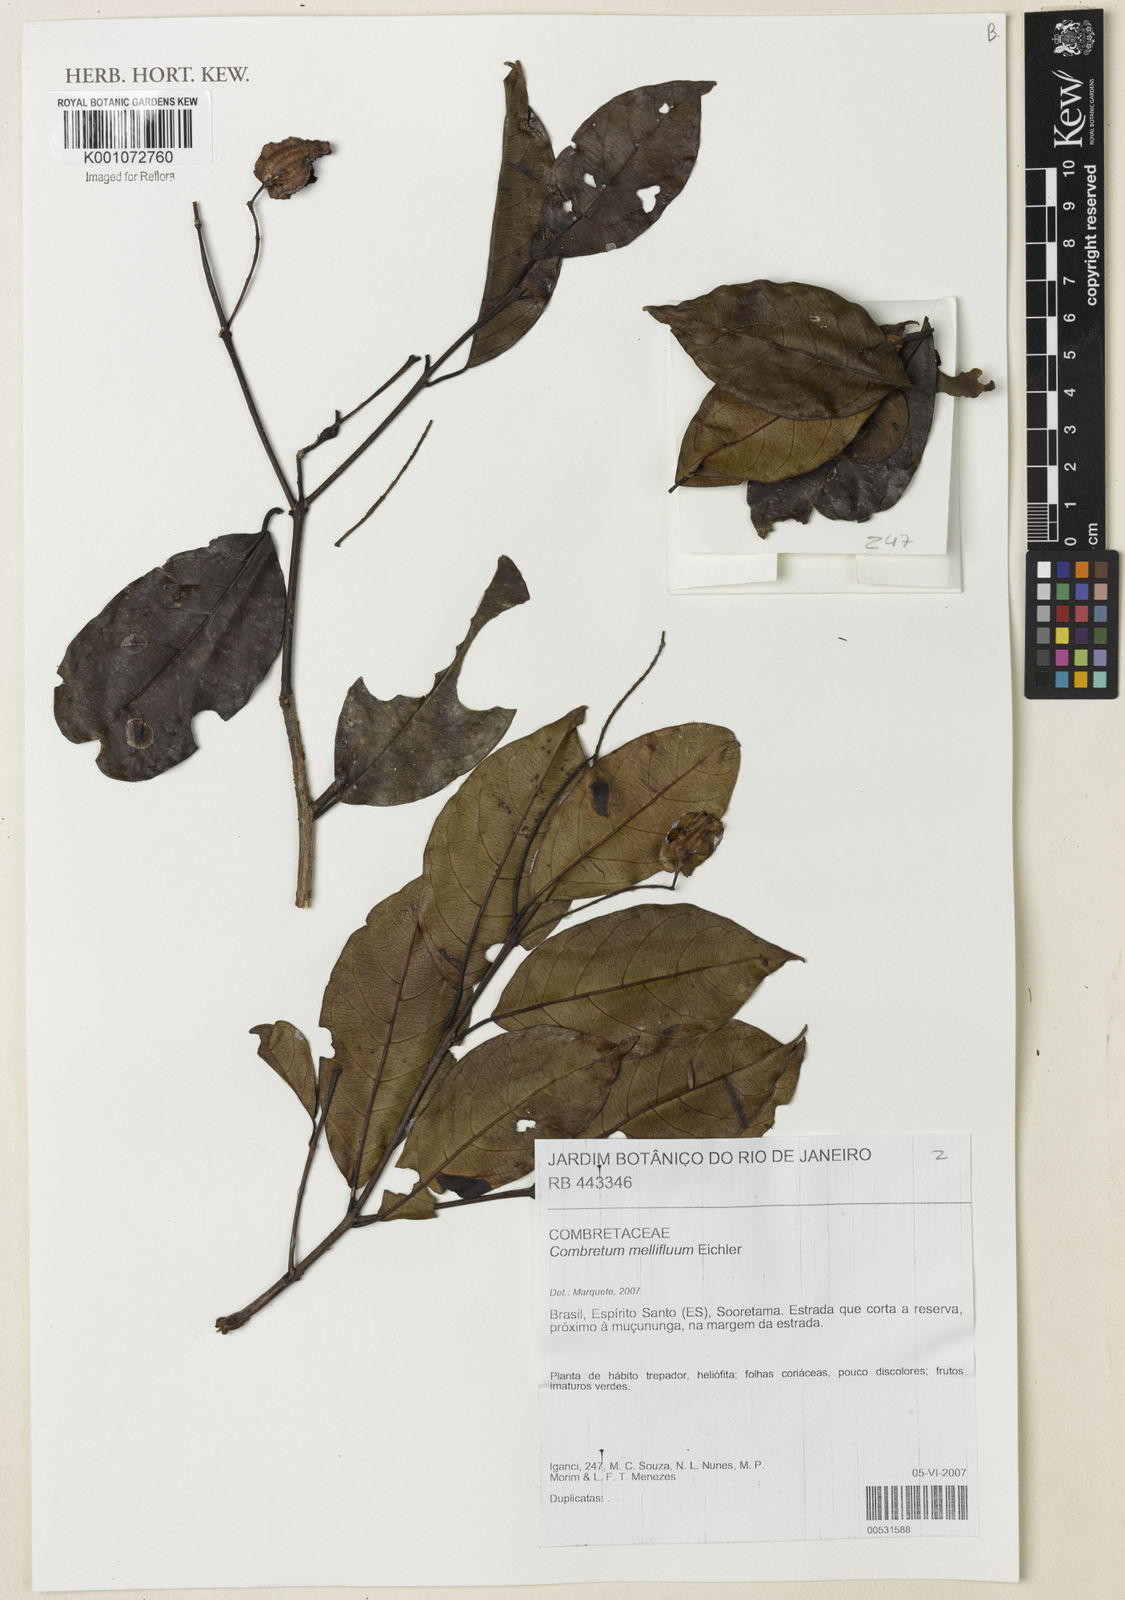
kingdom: Plantae
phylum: Tracheophyta
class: Magnoliopsida
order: Myrtales
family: Combretaceae
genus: Combretum
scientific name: Combretum mellifluum
